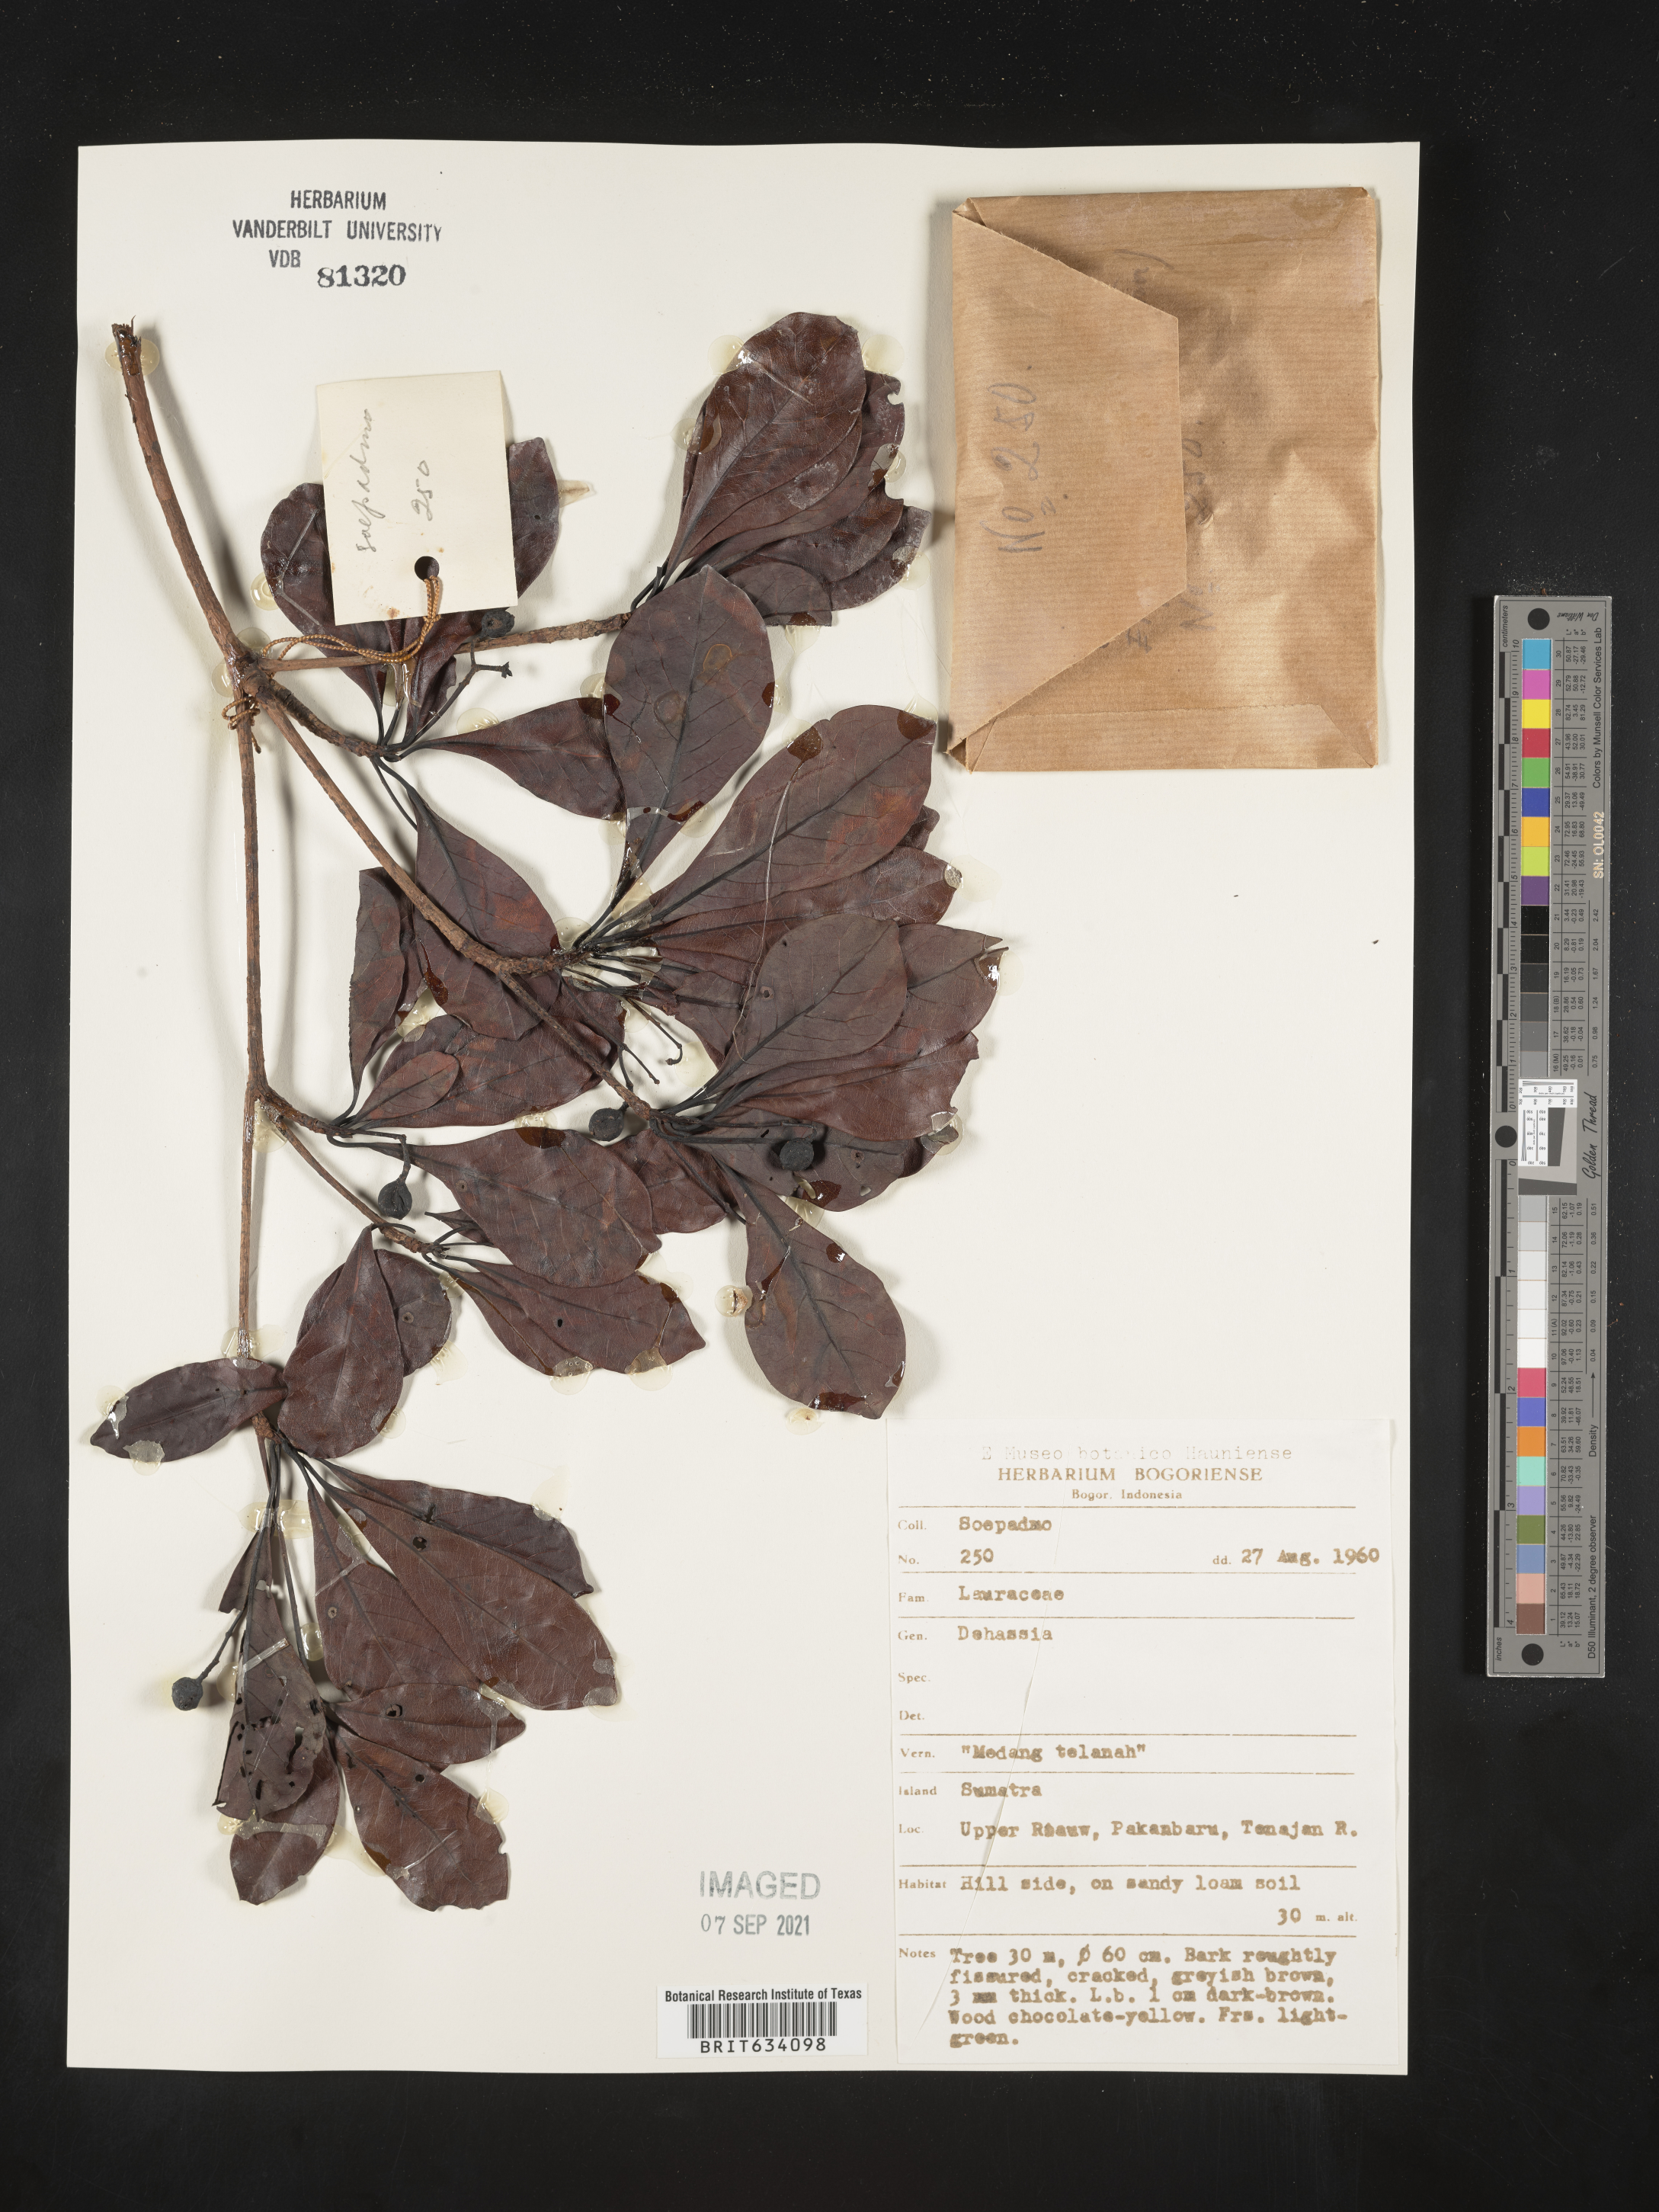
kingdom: Plantae
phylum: Tracheophyta
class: Magnoliopsida
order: Laurales
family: Lauraceae
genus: Dehaasia
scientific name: Dehaasia
